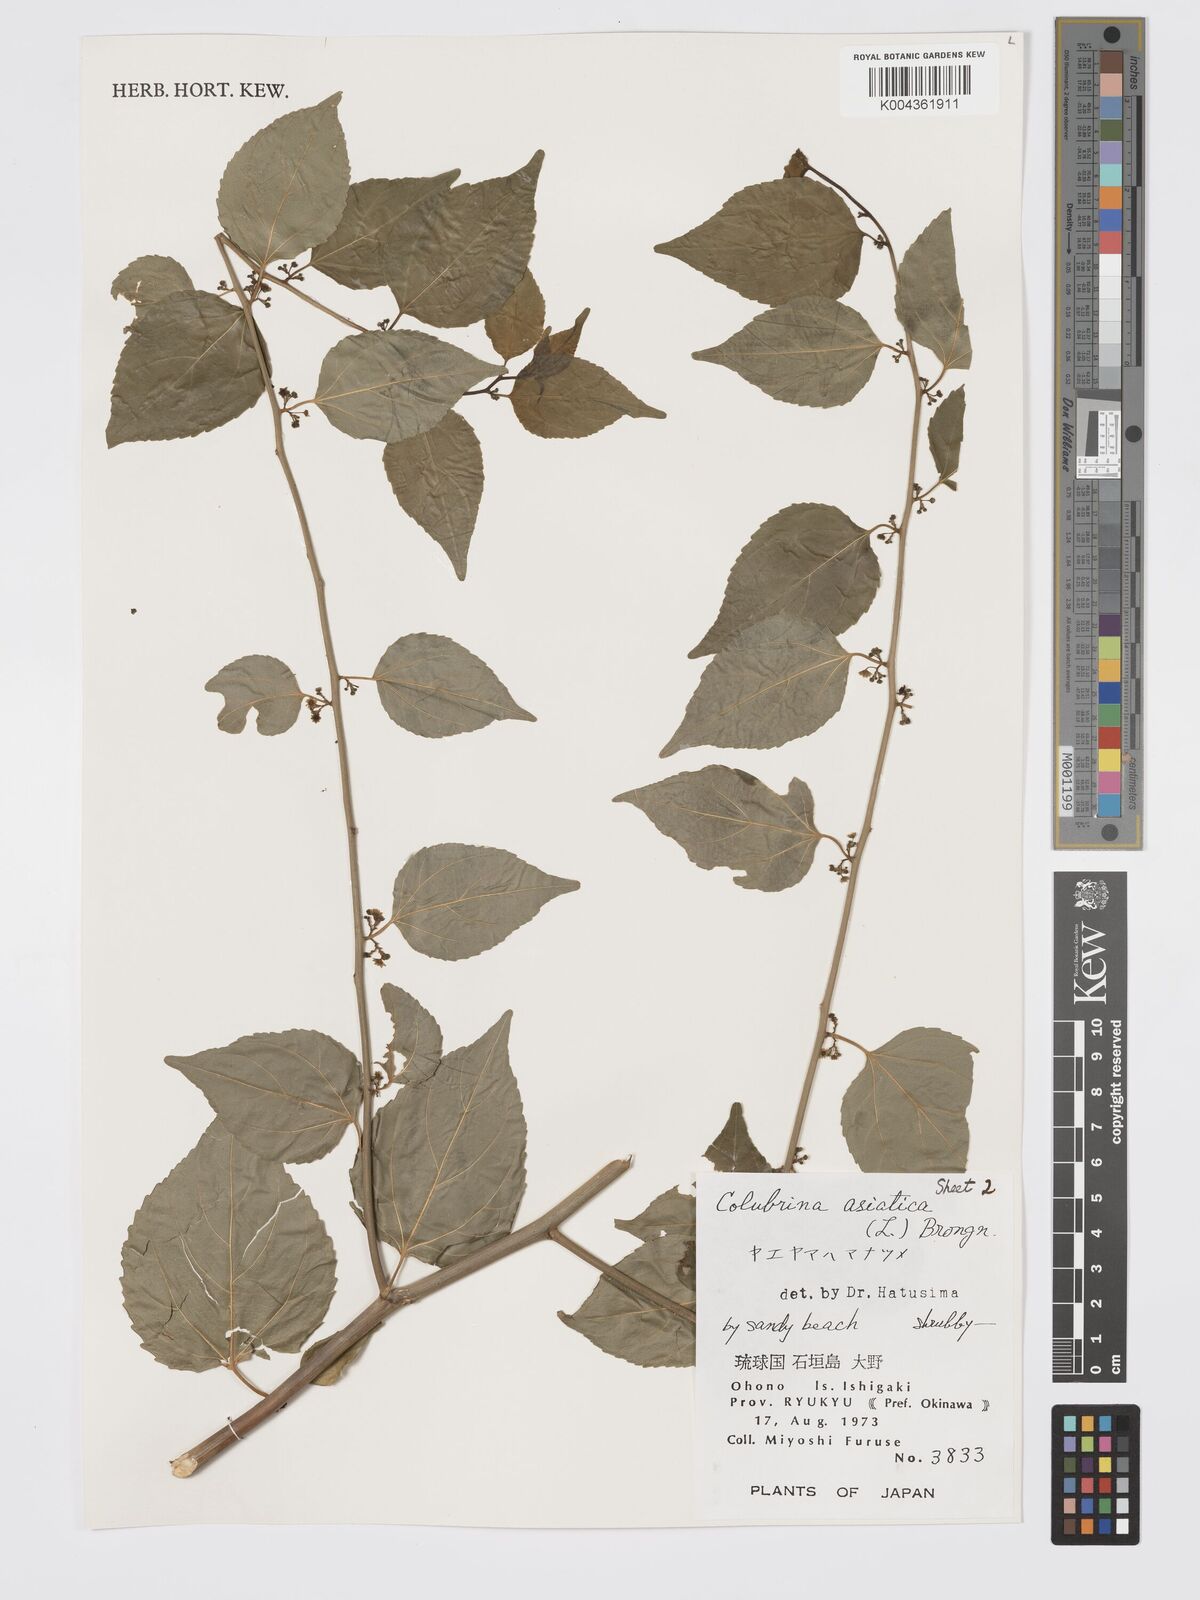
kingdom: Plantae
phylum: Tracheophyta
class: Magnoliopsida
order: Rosales
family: Rhamnaceae
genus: Colubrina
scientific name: Colubrina asiatica
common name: Asian nakedwood
